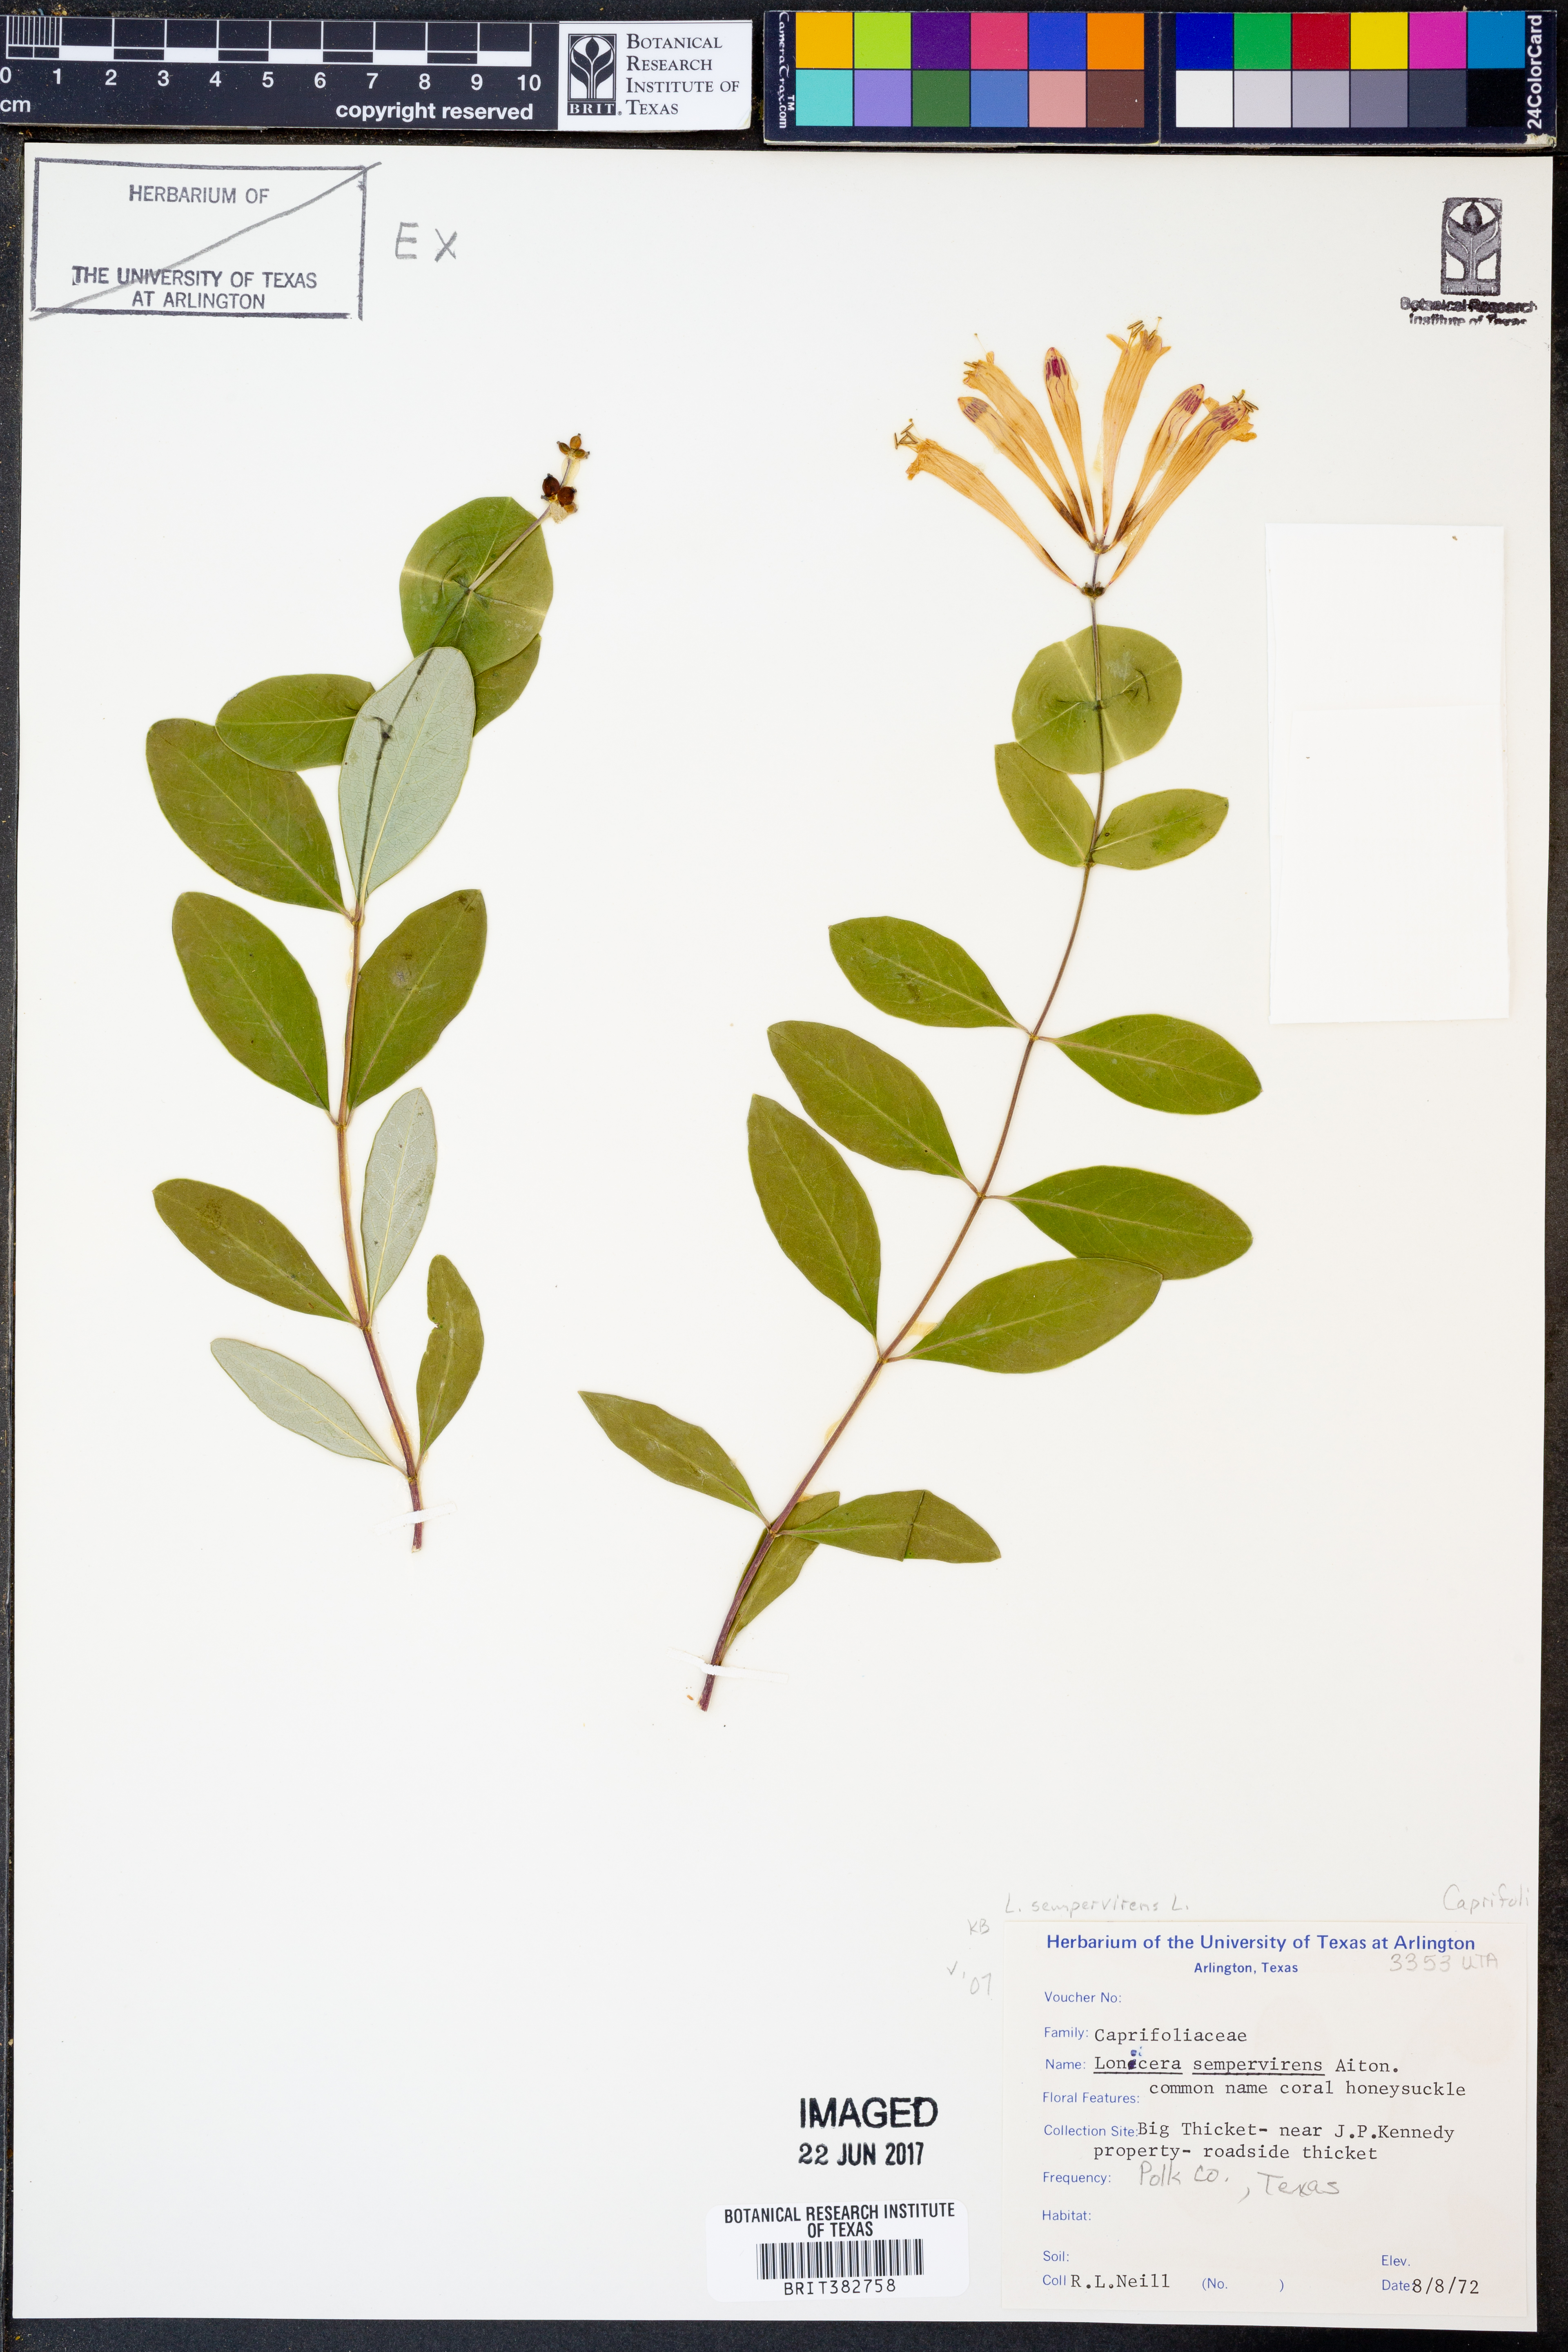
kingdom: Plantae
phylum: Tracheophyta
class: Magnoliopsida
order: Dipsacales
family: Caprifoliaceae
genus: Lonicera
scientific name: Lonicera sempervirens
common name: Coral honeysuckle
